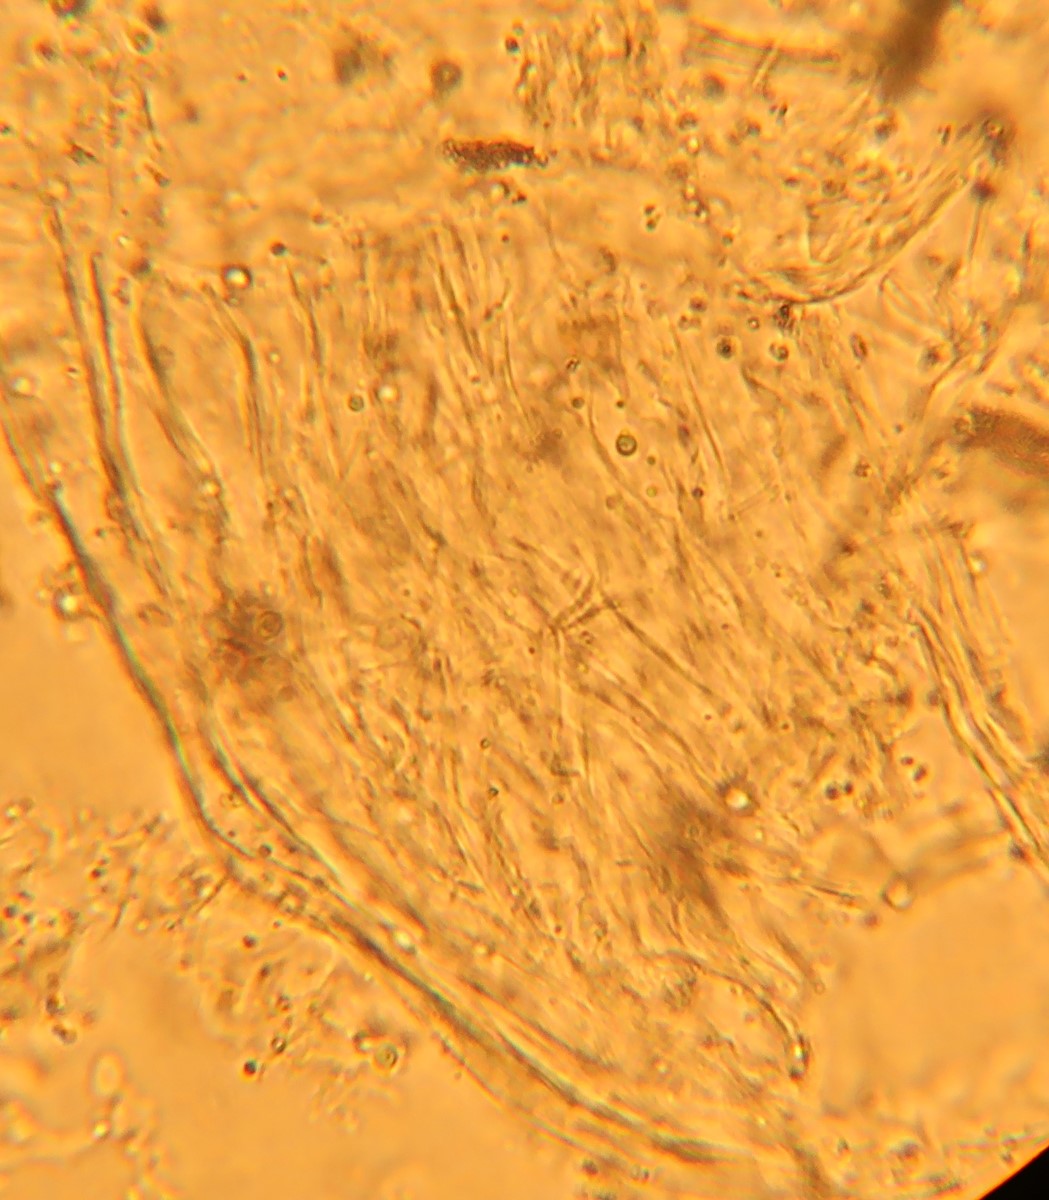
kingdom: Fungi
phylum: Basidiomycota
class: Agaricomycetes
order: Agaricales
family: Agaricaceae
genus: Lepiota
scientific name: Lepiota cristata
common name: stinkende parasolhat
